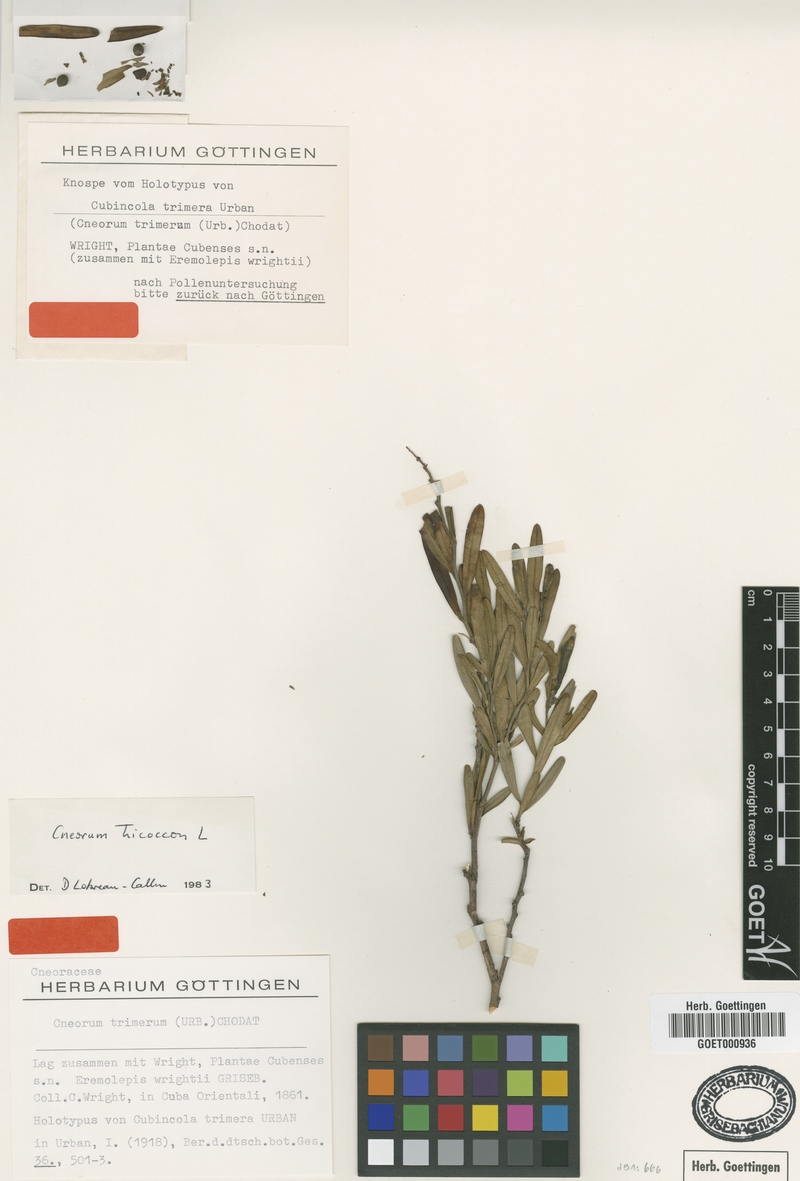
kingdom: Plantae
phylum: Tracheophyta
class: Magnoliopsida
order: Sapindales
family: Rutaceae
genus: Cneorum
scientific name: Cneorum tricoccon
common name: Spurge olive
